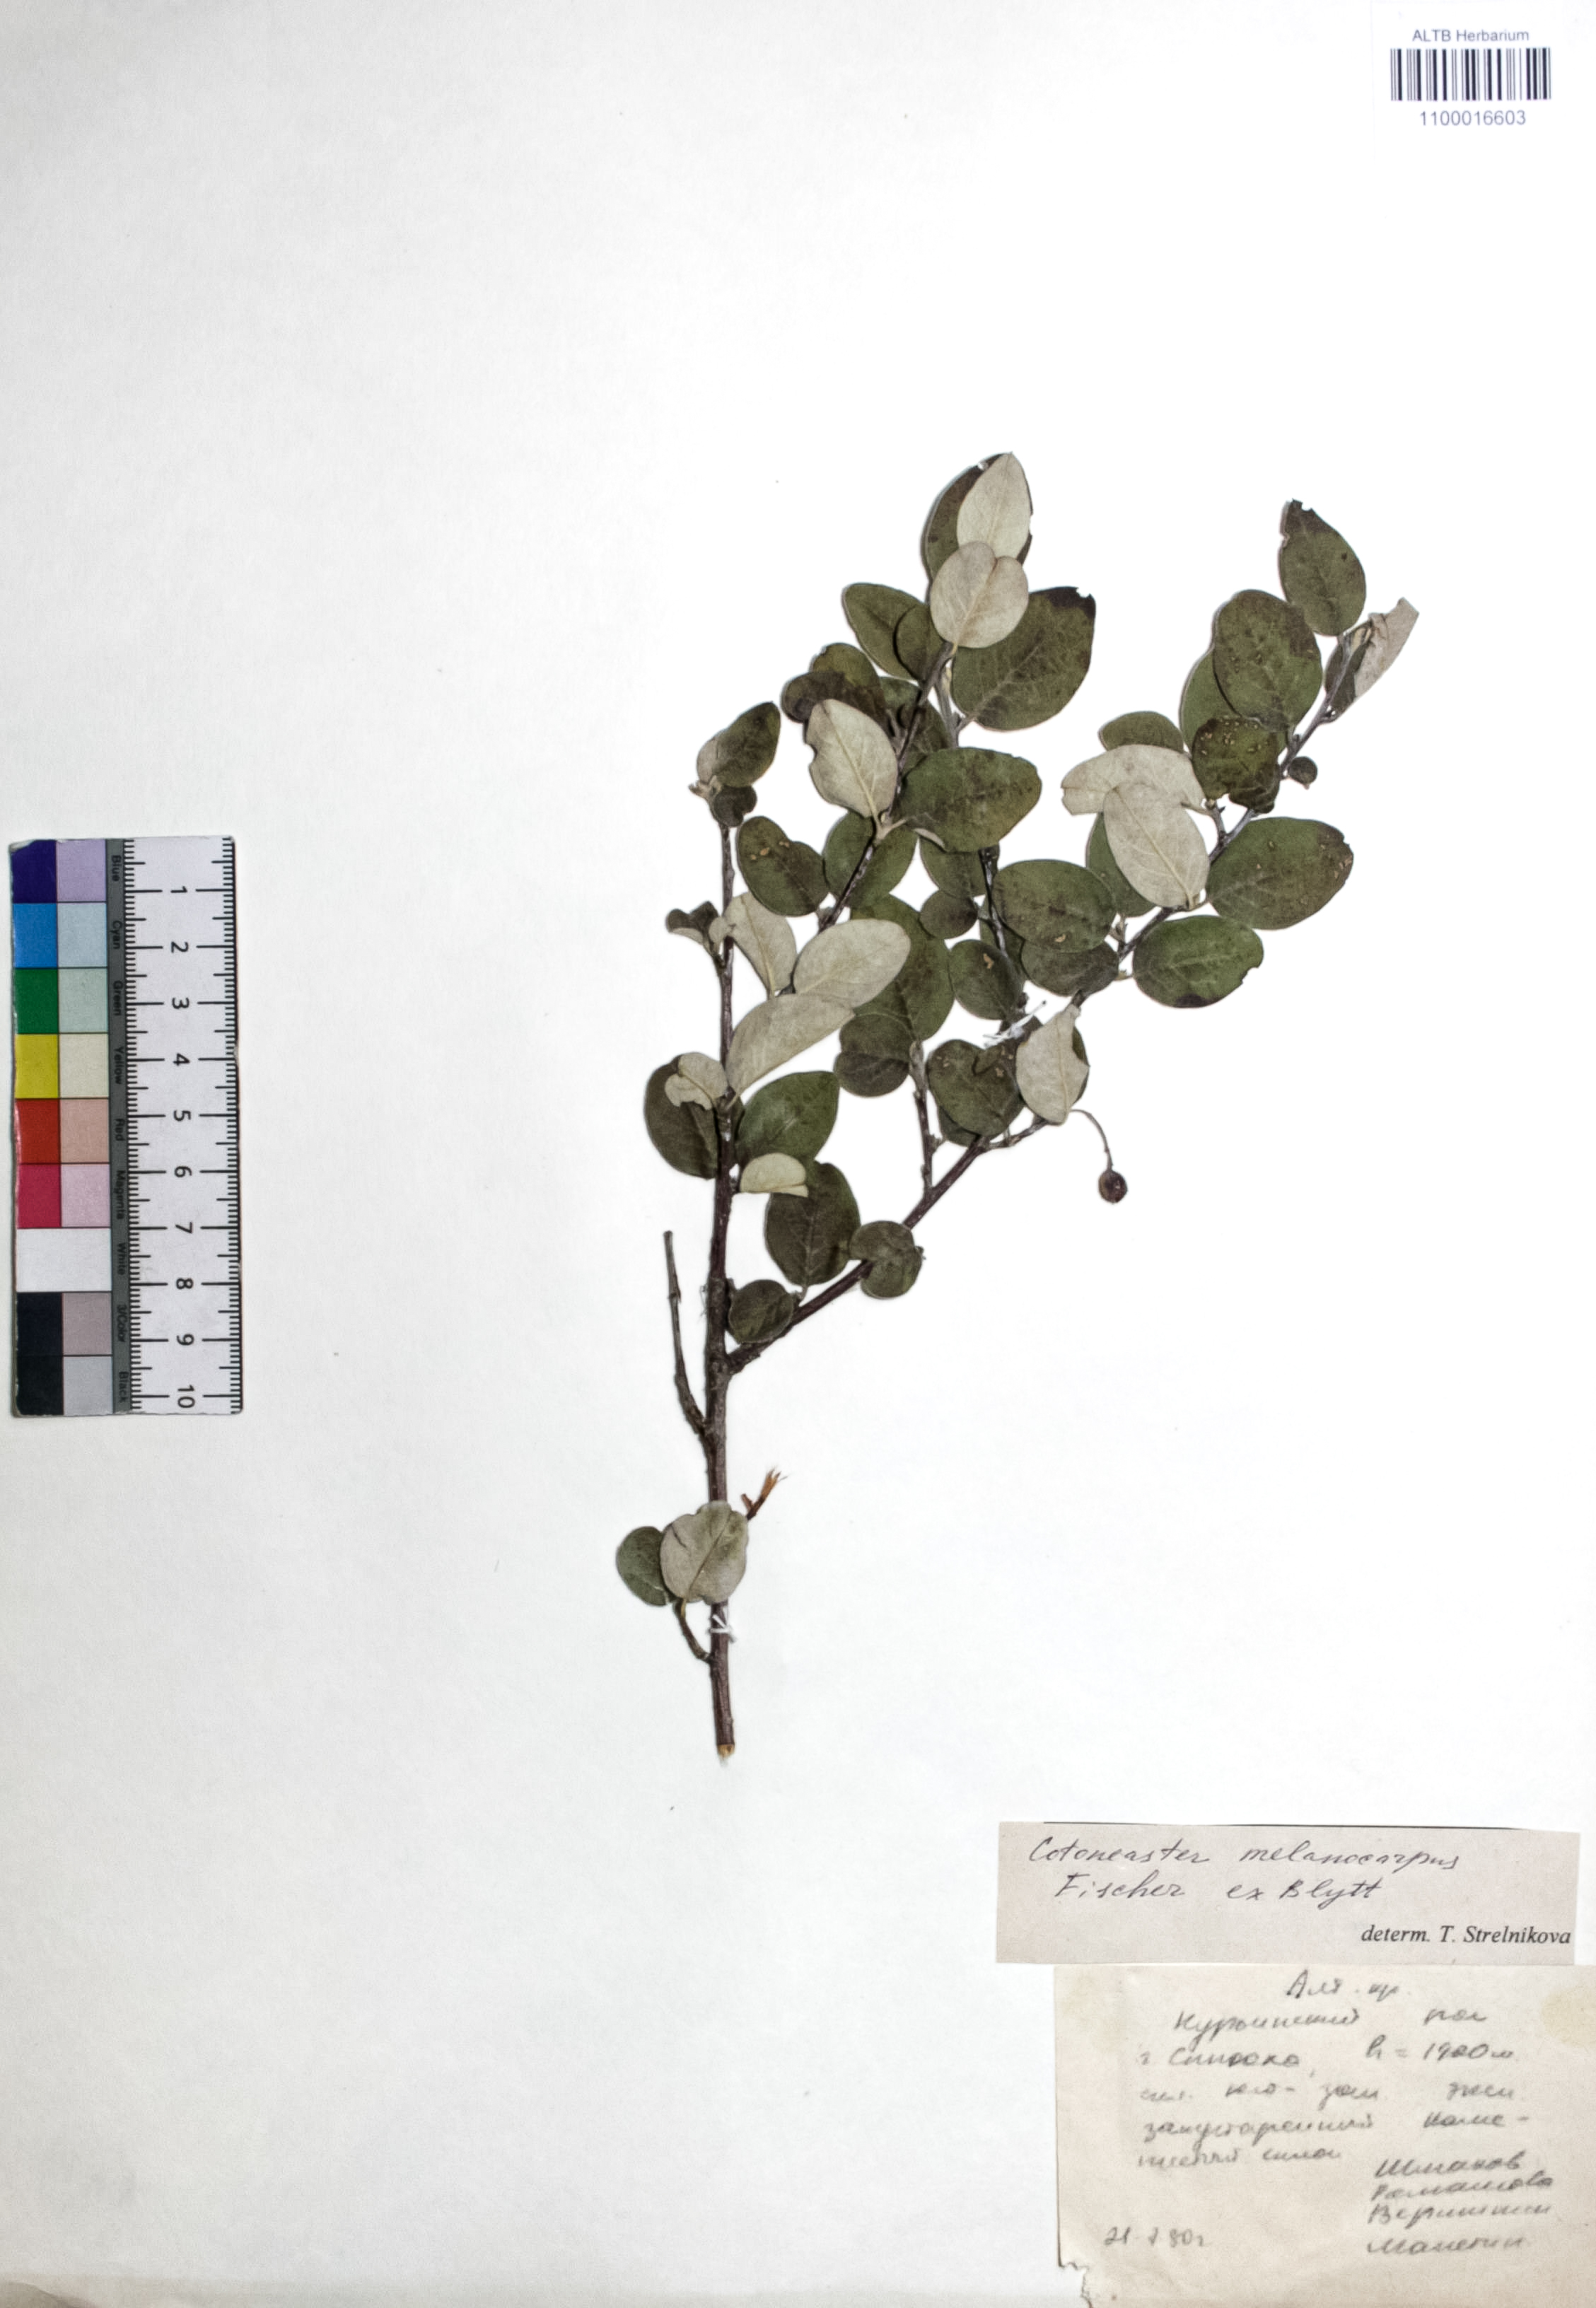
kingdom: Plantae
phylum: Tracheophyta
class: Magnoliopsida
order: Rosales
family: Rosaceae
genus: Cotoneaster
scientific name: Cotoneaster niger
